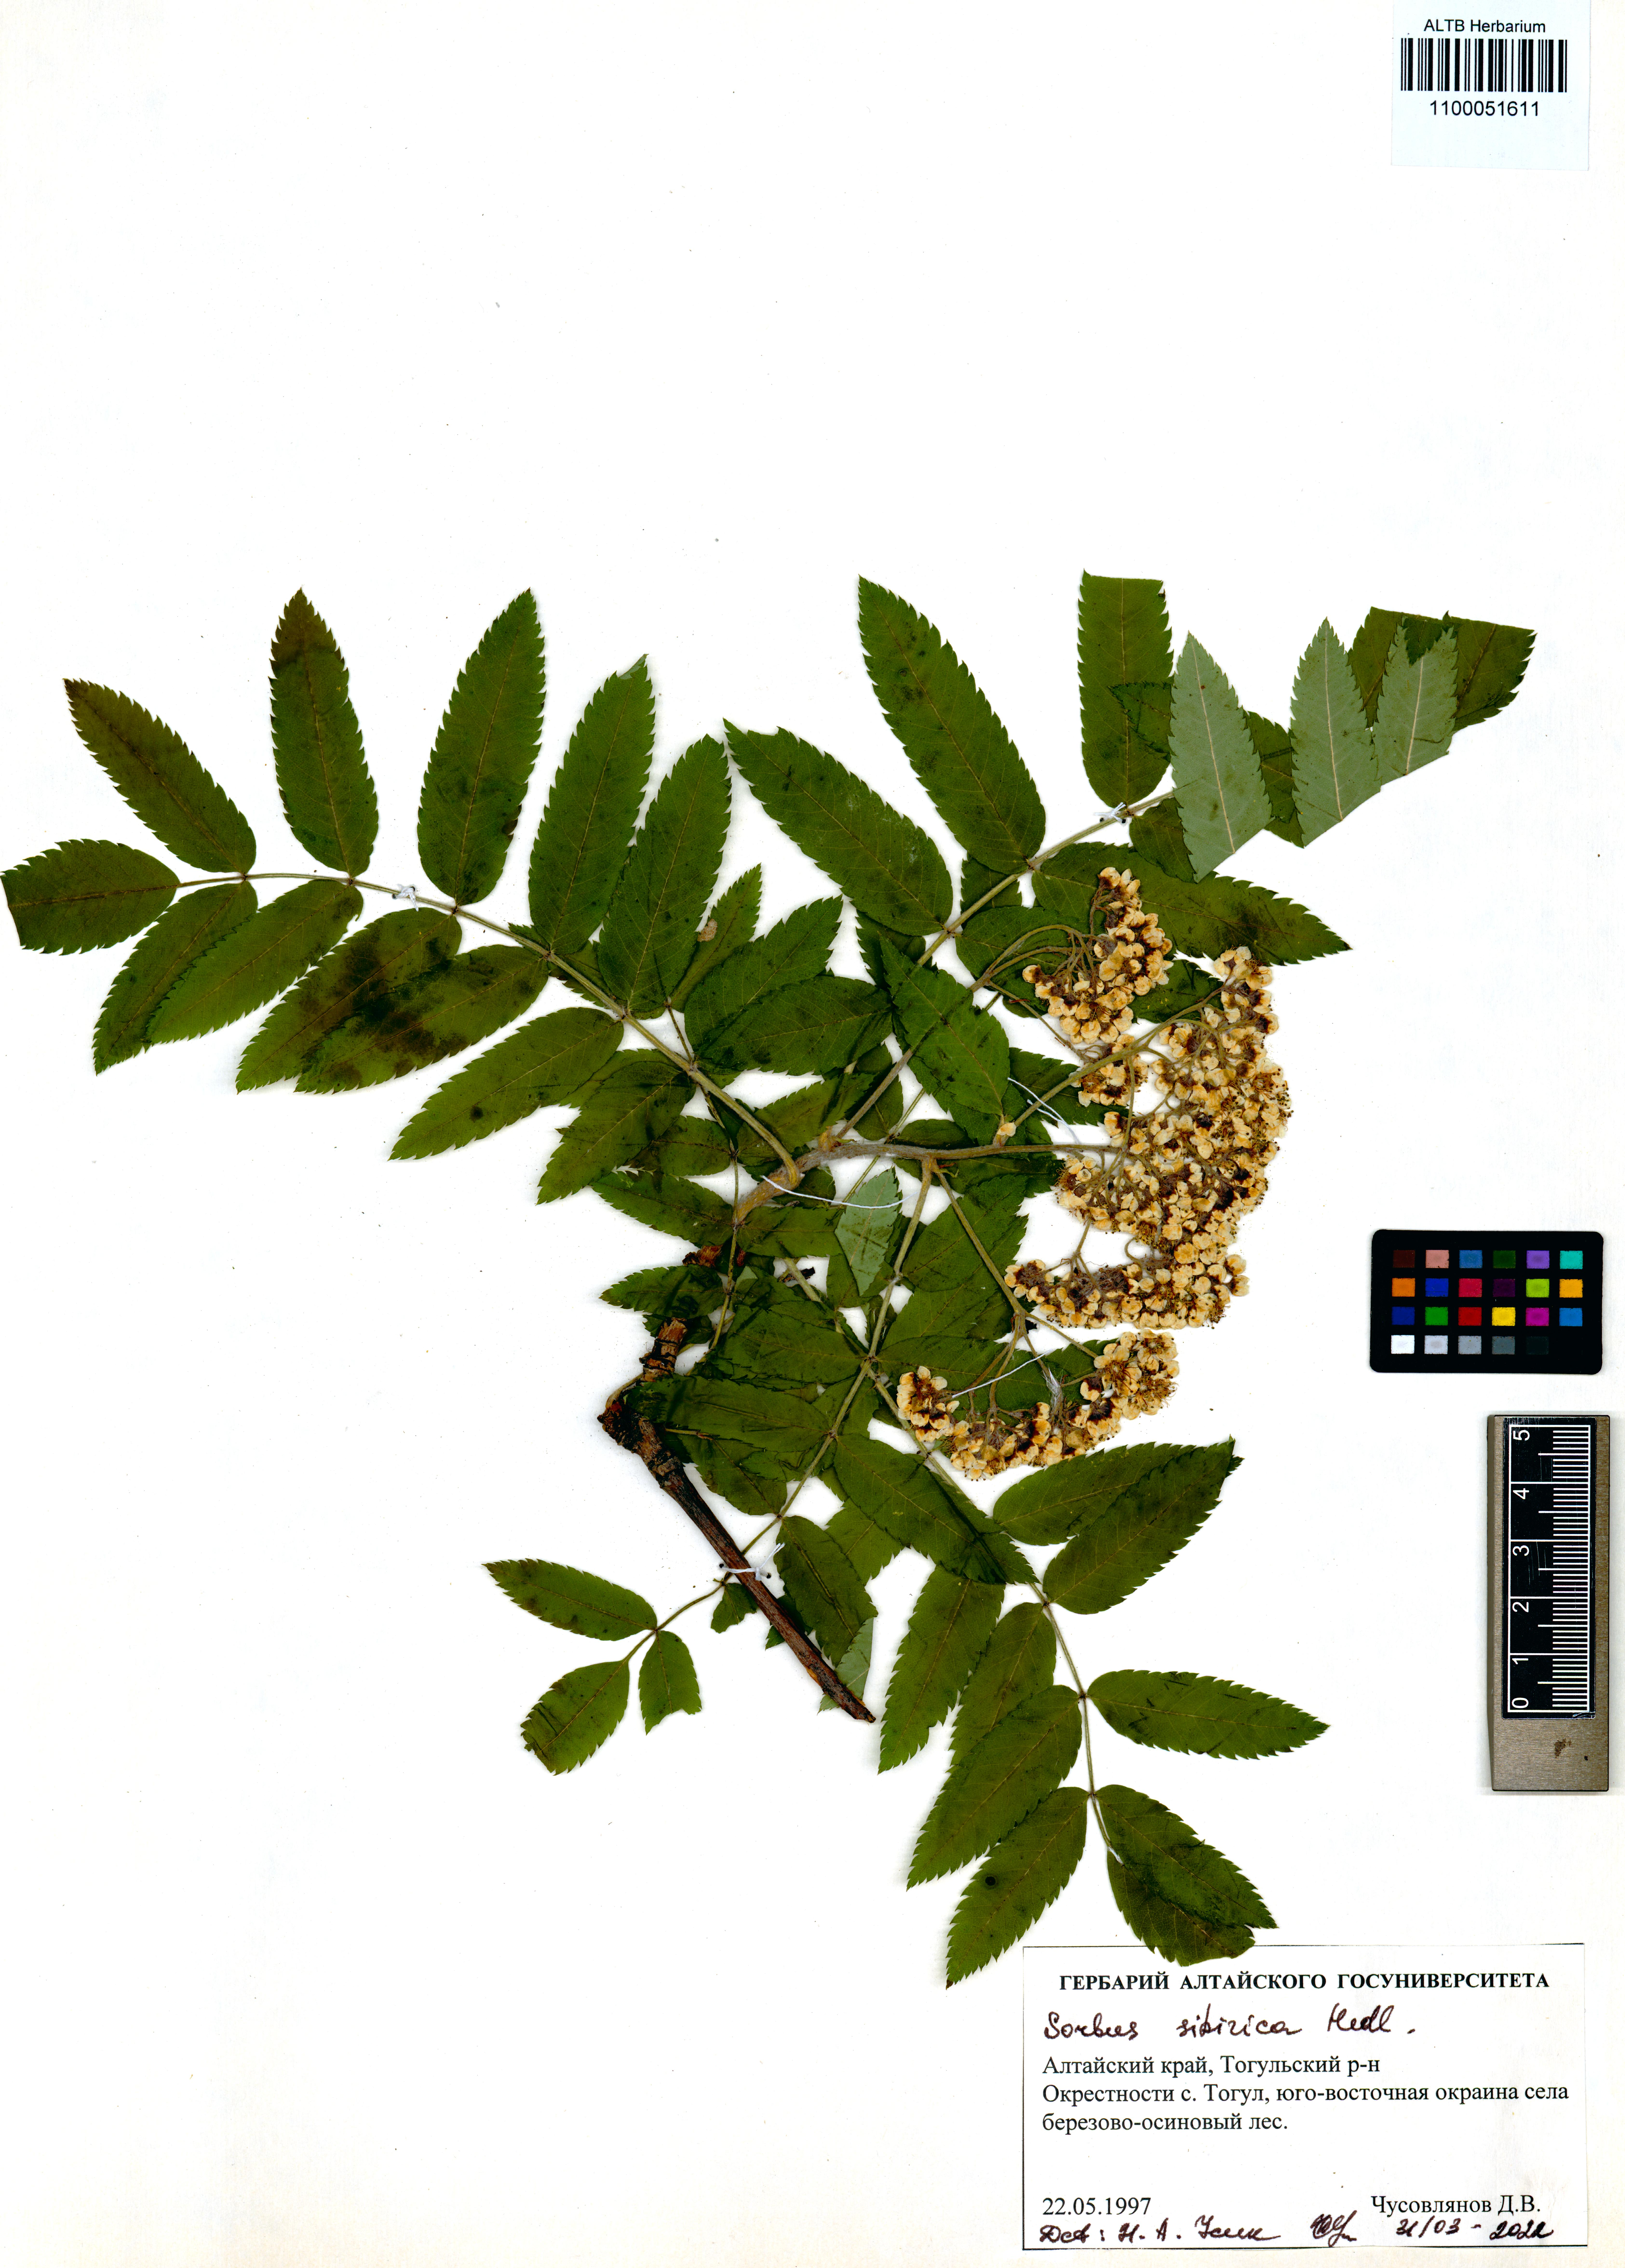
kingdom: Plantae
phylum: Tracheophyta
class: Magnoliopsida
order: Rosales
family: Rosaceae
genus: Sorbus
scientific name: Sorbus aucuparia
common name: Rowan
